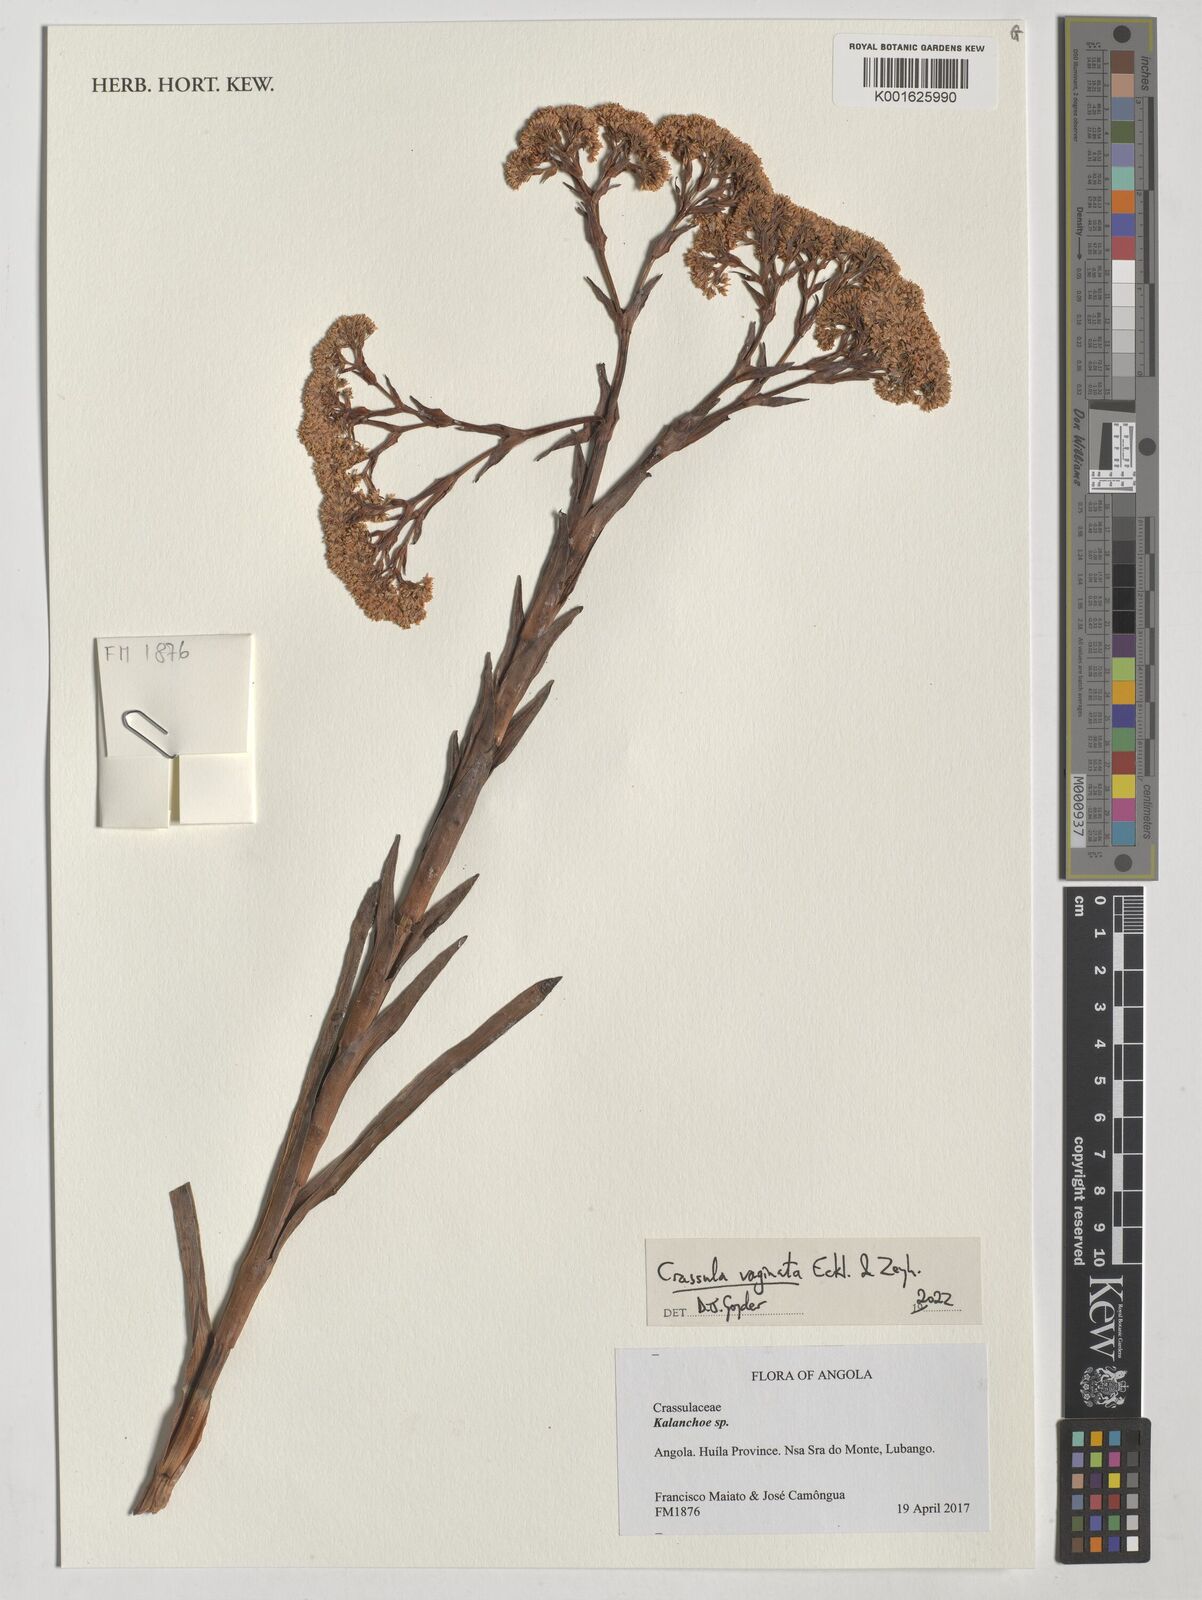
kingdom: Plantae
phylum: Tracheophyta
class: Magnoliopsida
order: Saxifragales
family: Crassulaceae
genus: Crassula
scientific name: Crassula vaginata
